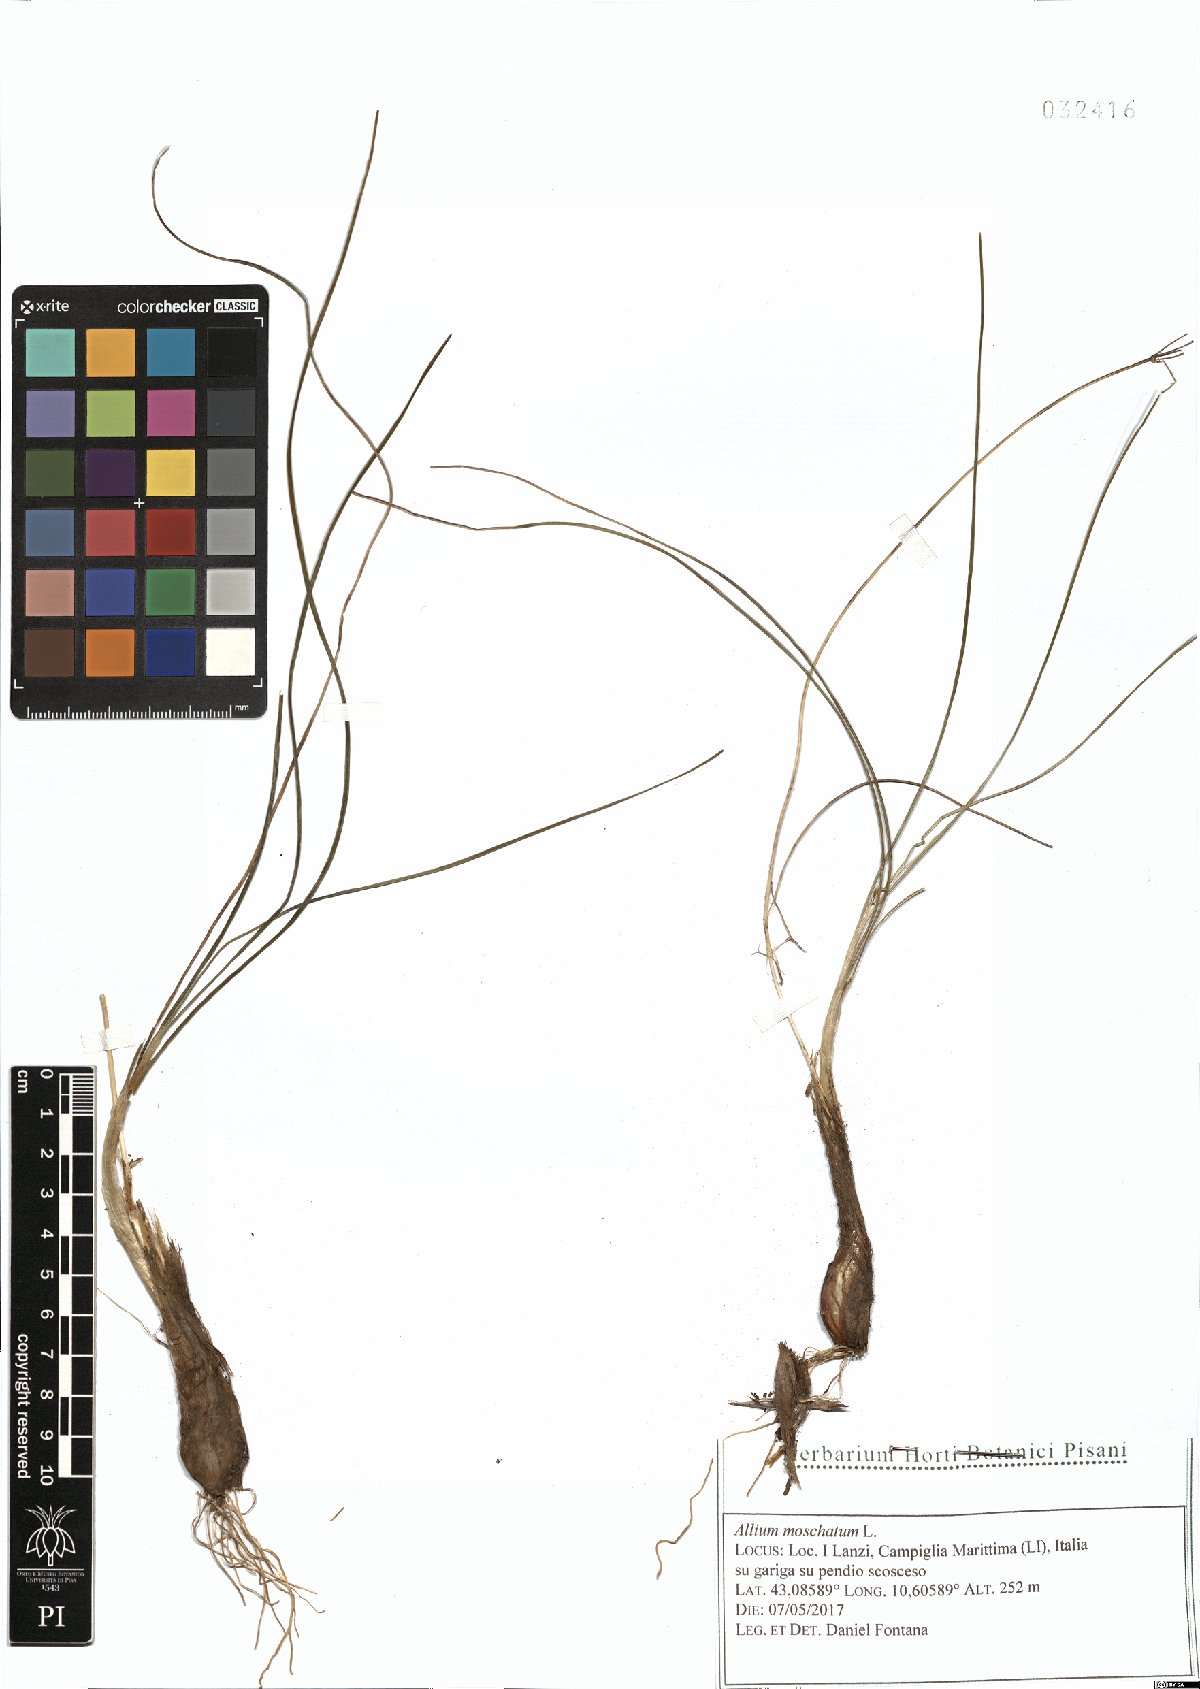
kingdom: Plantae
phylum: Tracheophyta
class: Liliopsida
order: Asparagales
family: Amaryllidaceae
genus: Allium
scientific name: Allium moschatum
